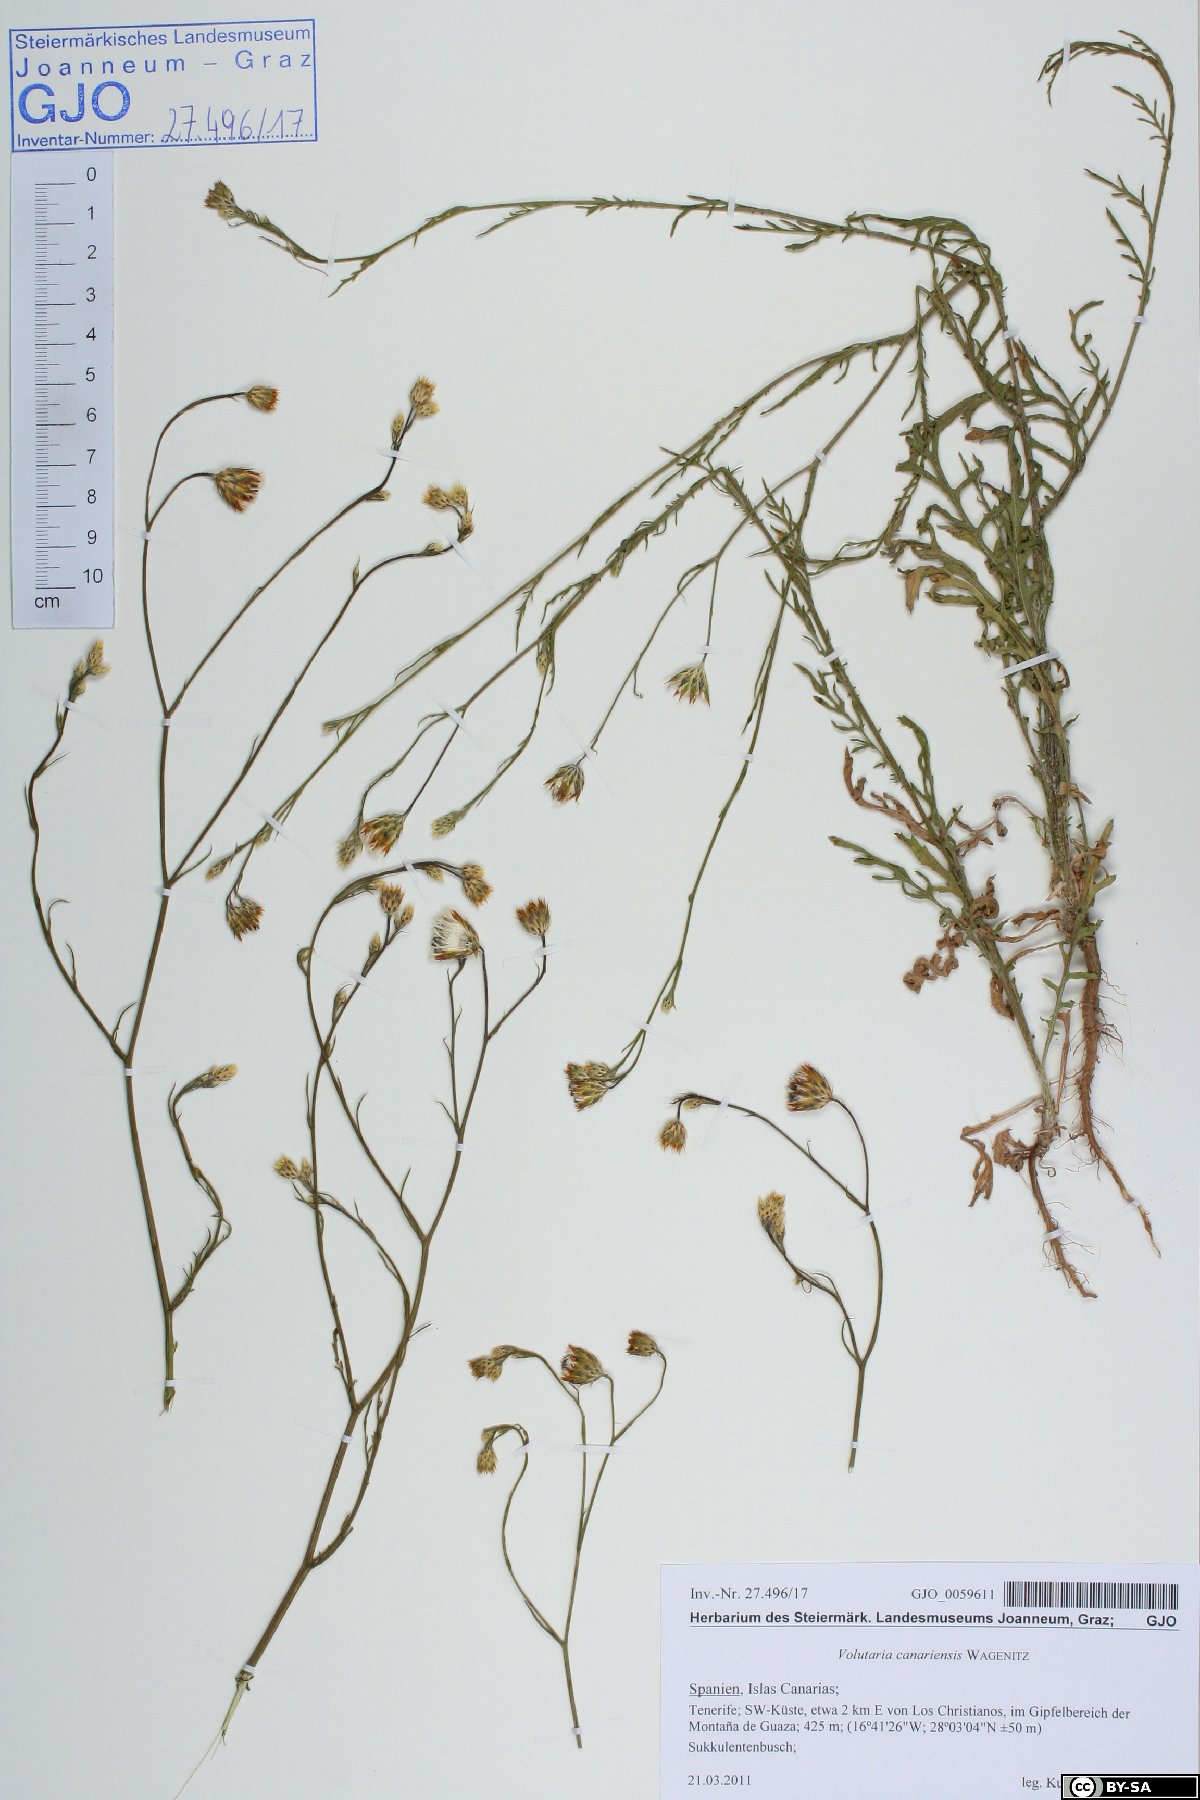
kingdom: Plantae
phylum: Tracheophyta
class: Magnoliopsida
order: Asterales
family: Asteraceae
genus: Volutaria
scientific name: Volutaria canariensis
